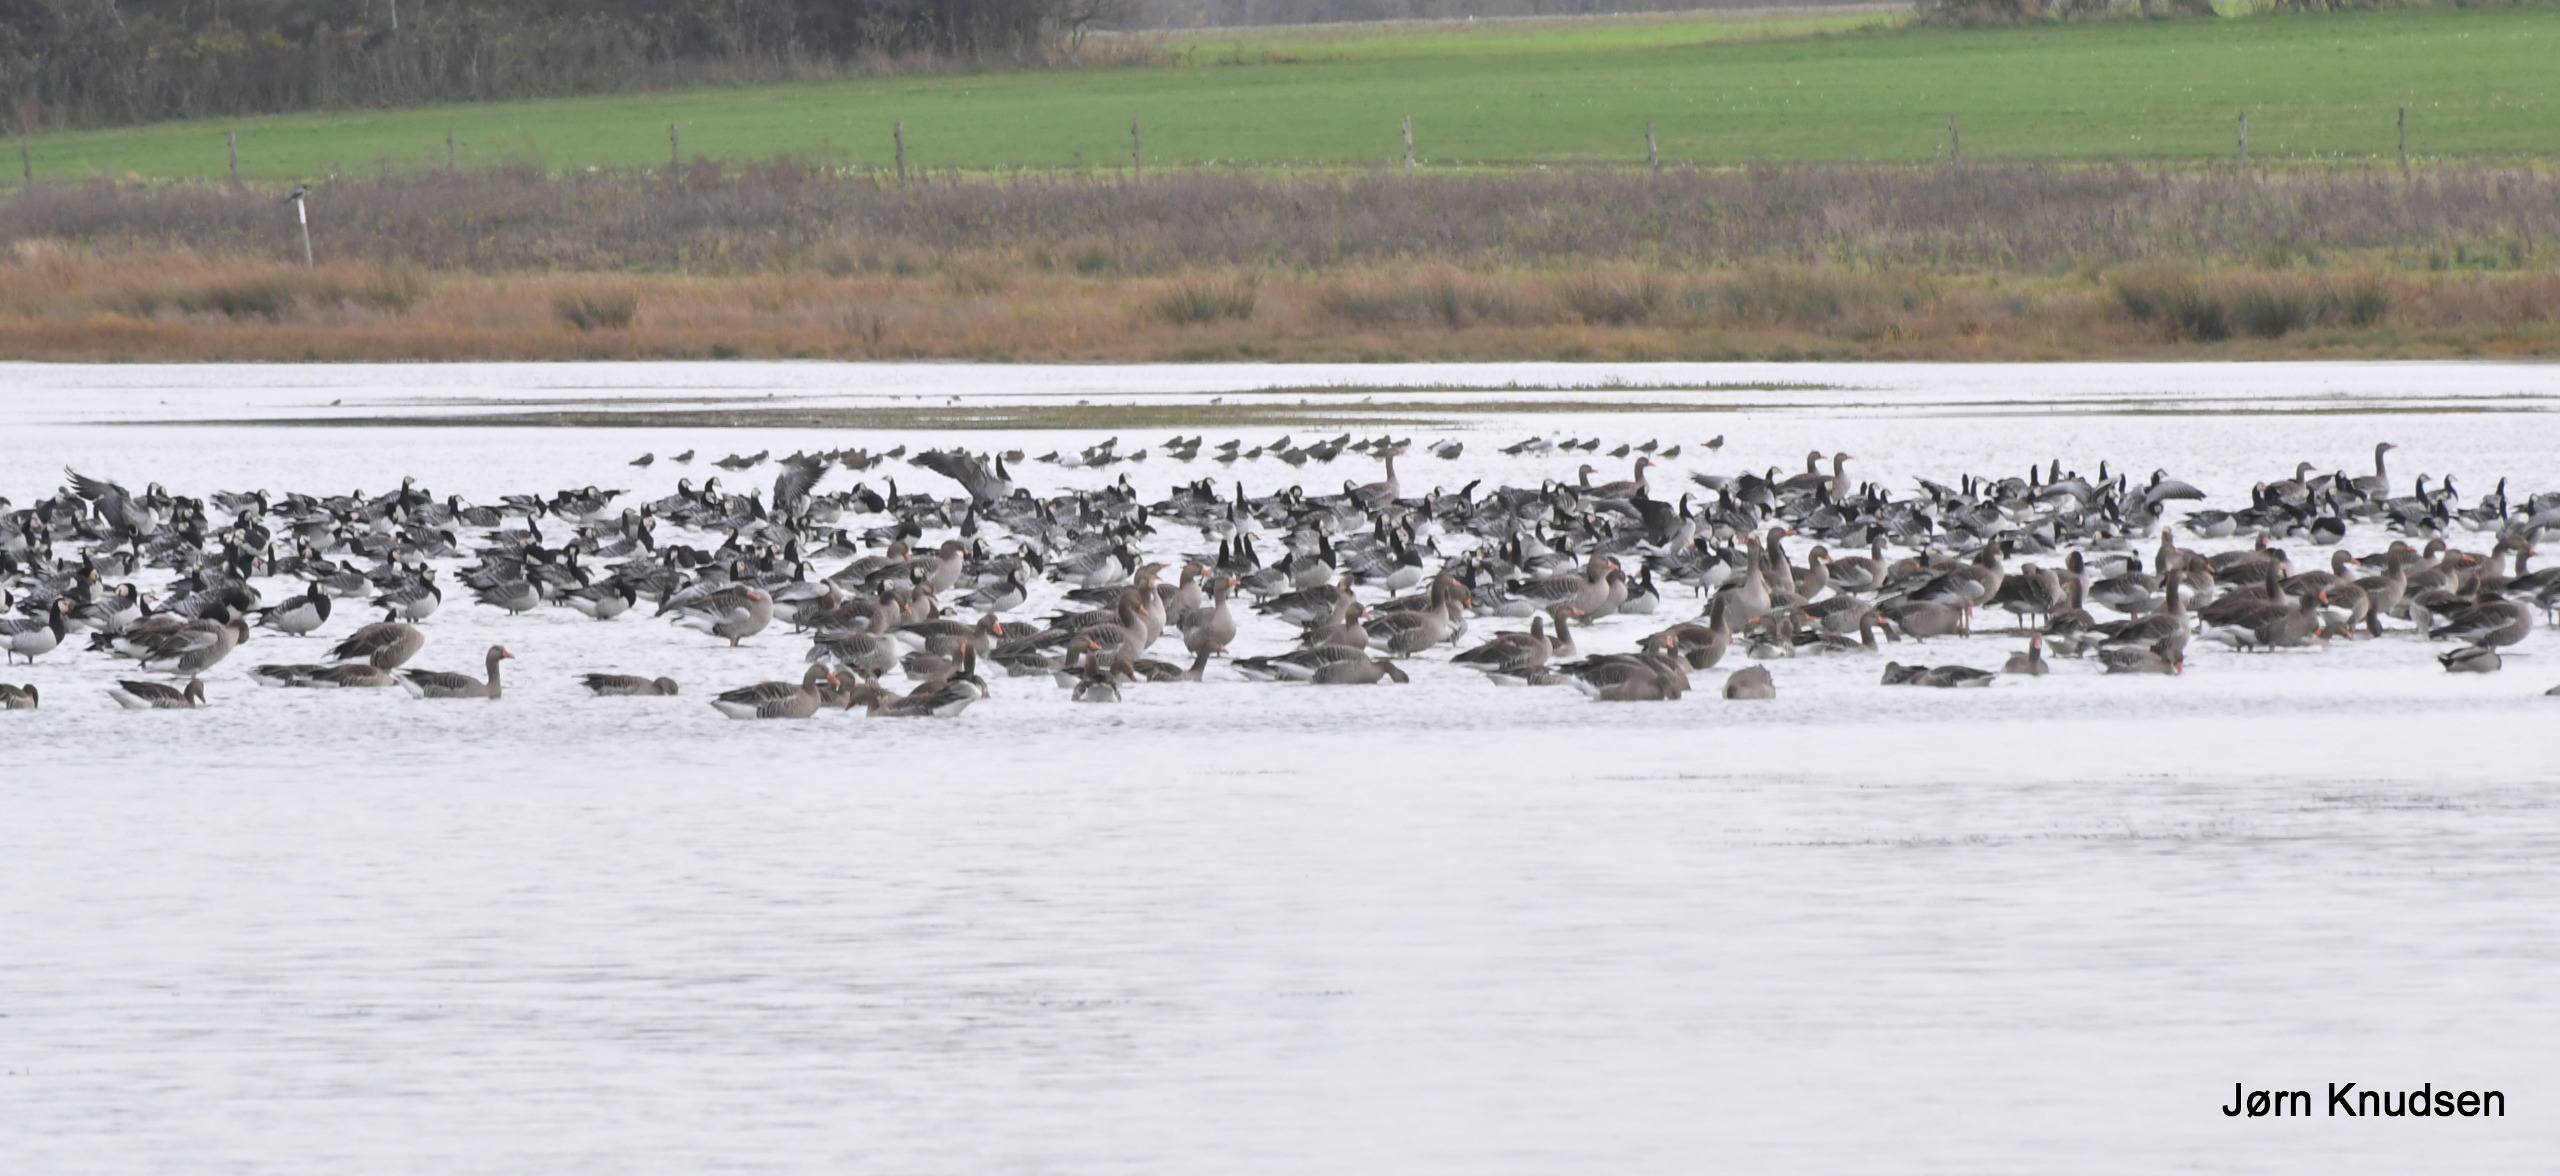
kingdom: Animalia
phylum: Chordata
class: Aves
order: Anseriformes
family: Anatidae
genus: Branta
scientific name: Branta leucopsis
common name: Bramgås
